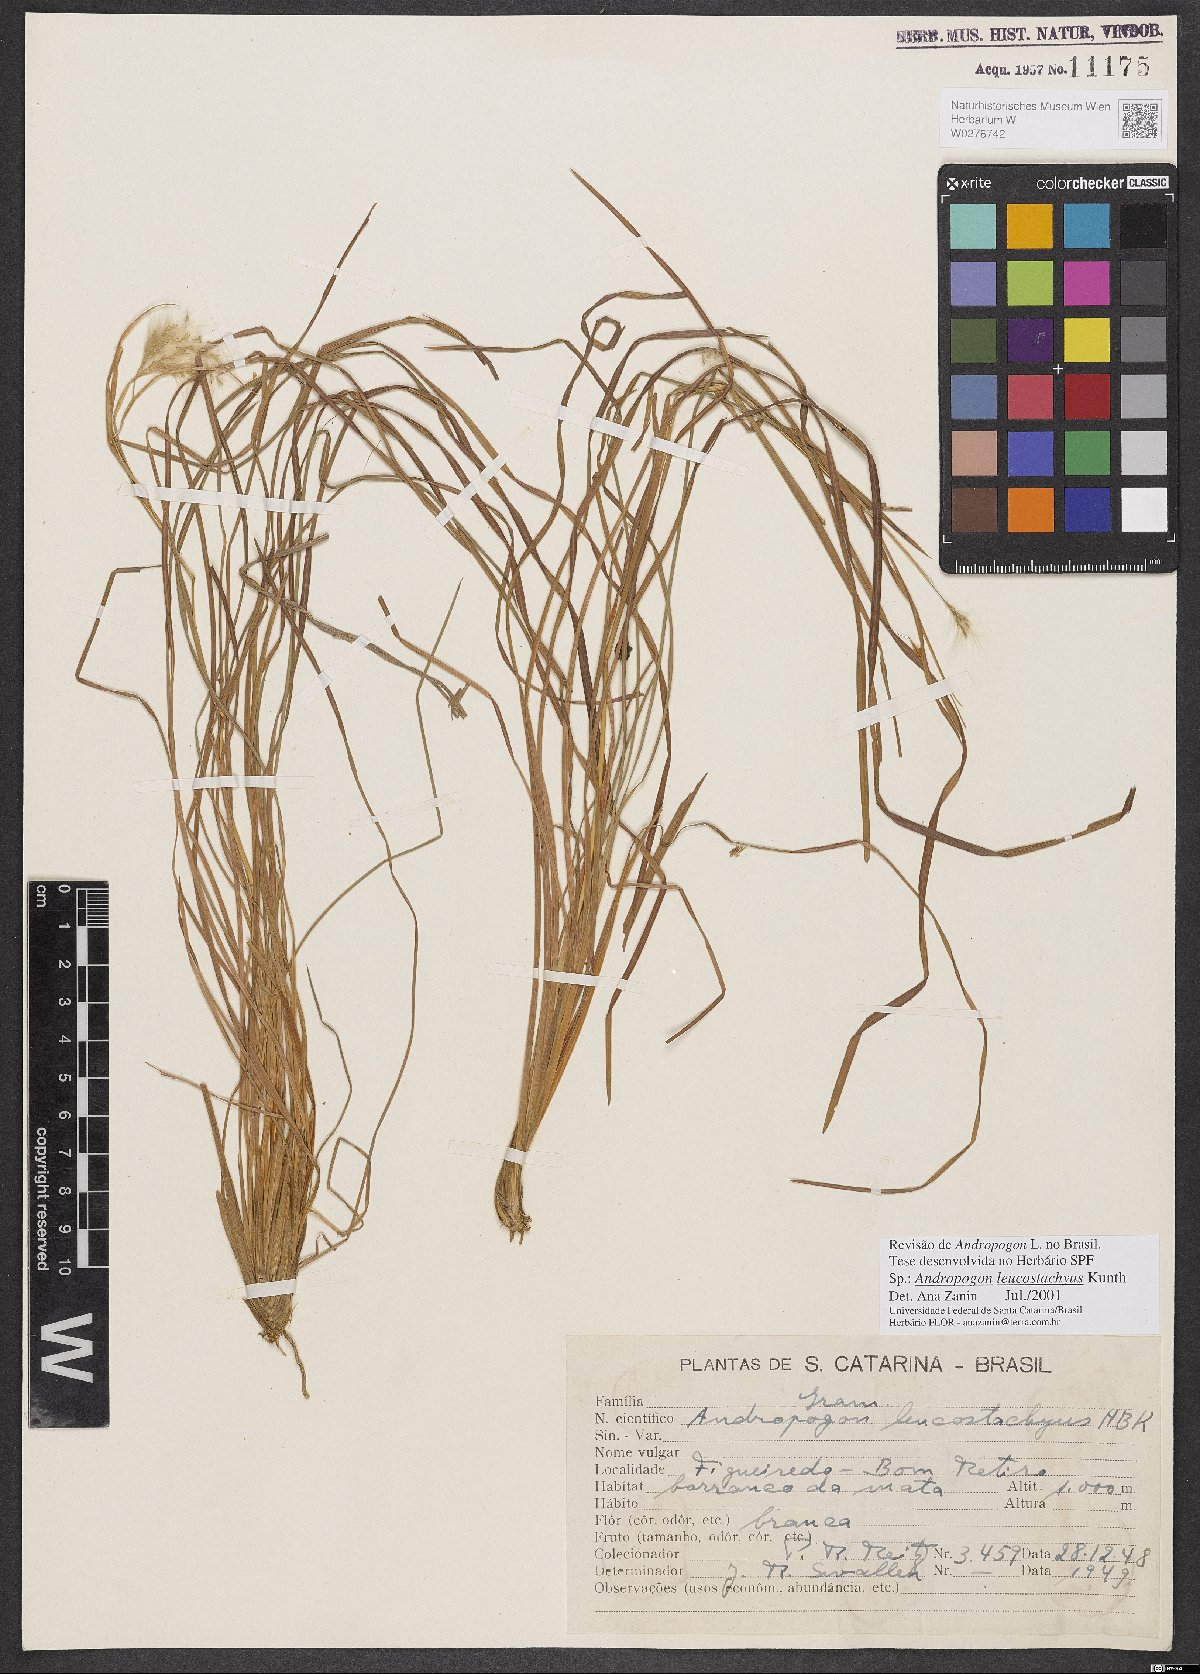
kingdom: Plantae
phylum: Tracheophyta
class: Liliopsida
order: Poales
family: Poaceae
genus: Andropogon
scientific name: Andropogon leucostachyus
